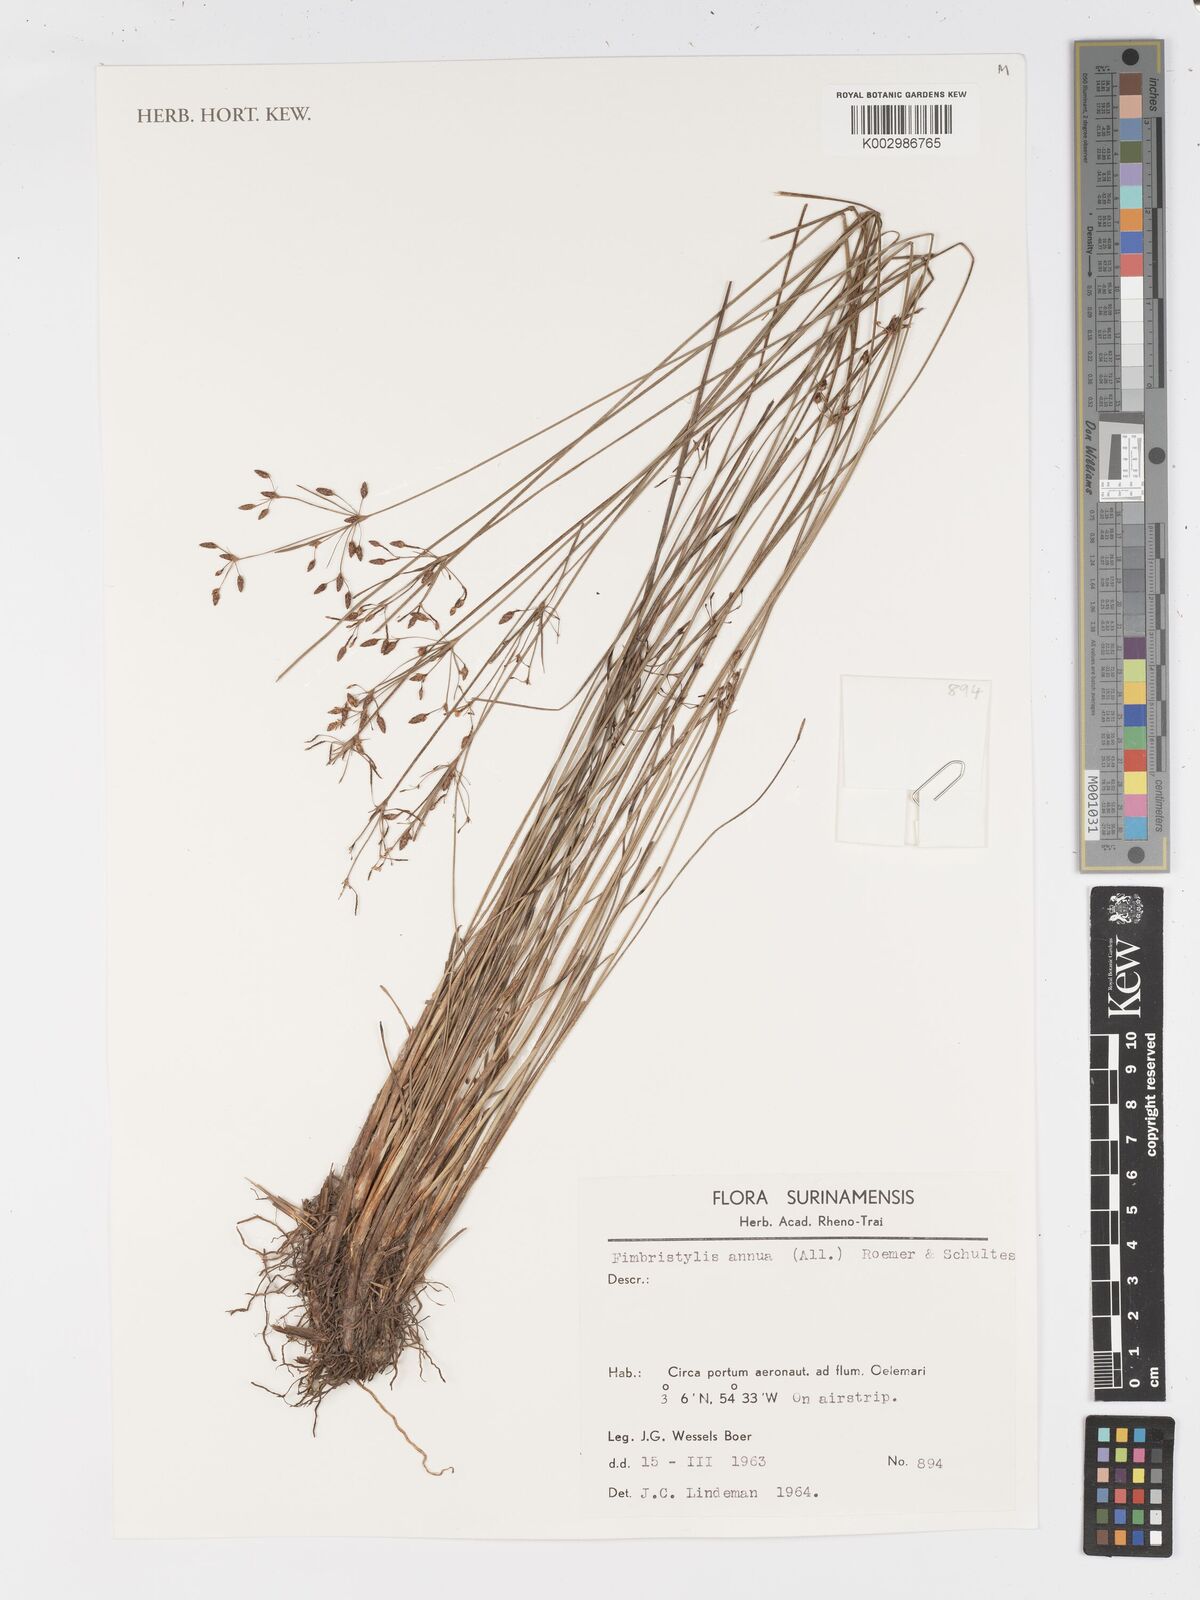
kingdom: Plantae
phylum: Tracheophyta
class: Liliopsida
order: Poales
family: Cyperaceae
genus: Fimbristylis
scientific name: Fimbristylis dichotoma
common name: Forked fimbry
